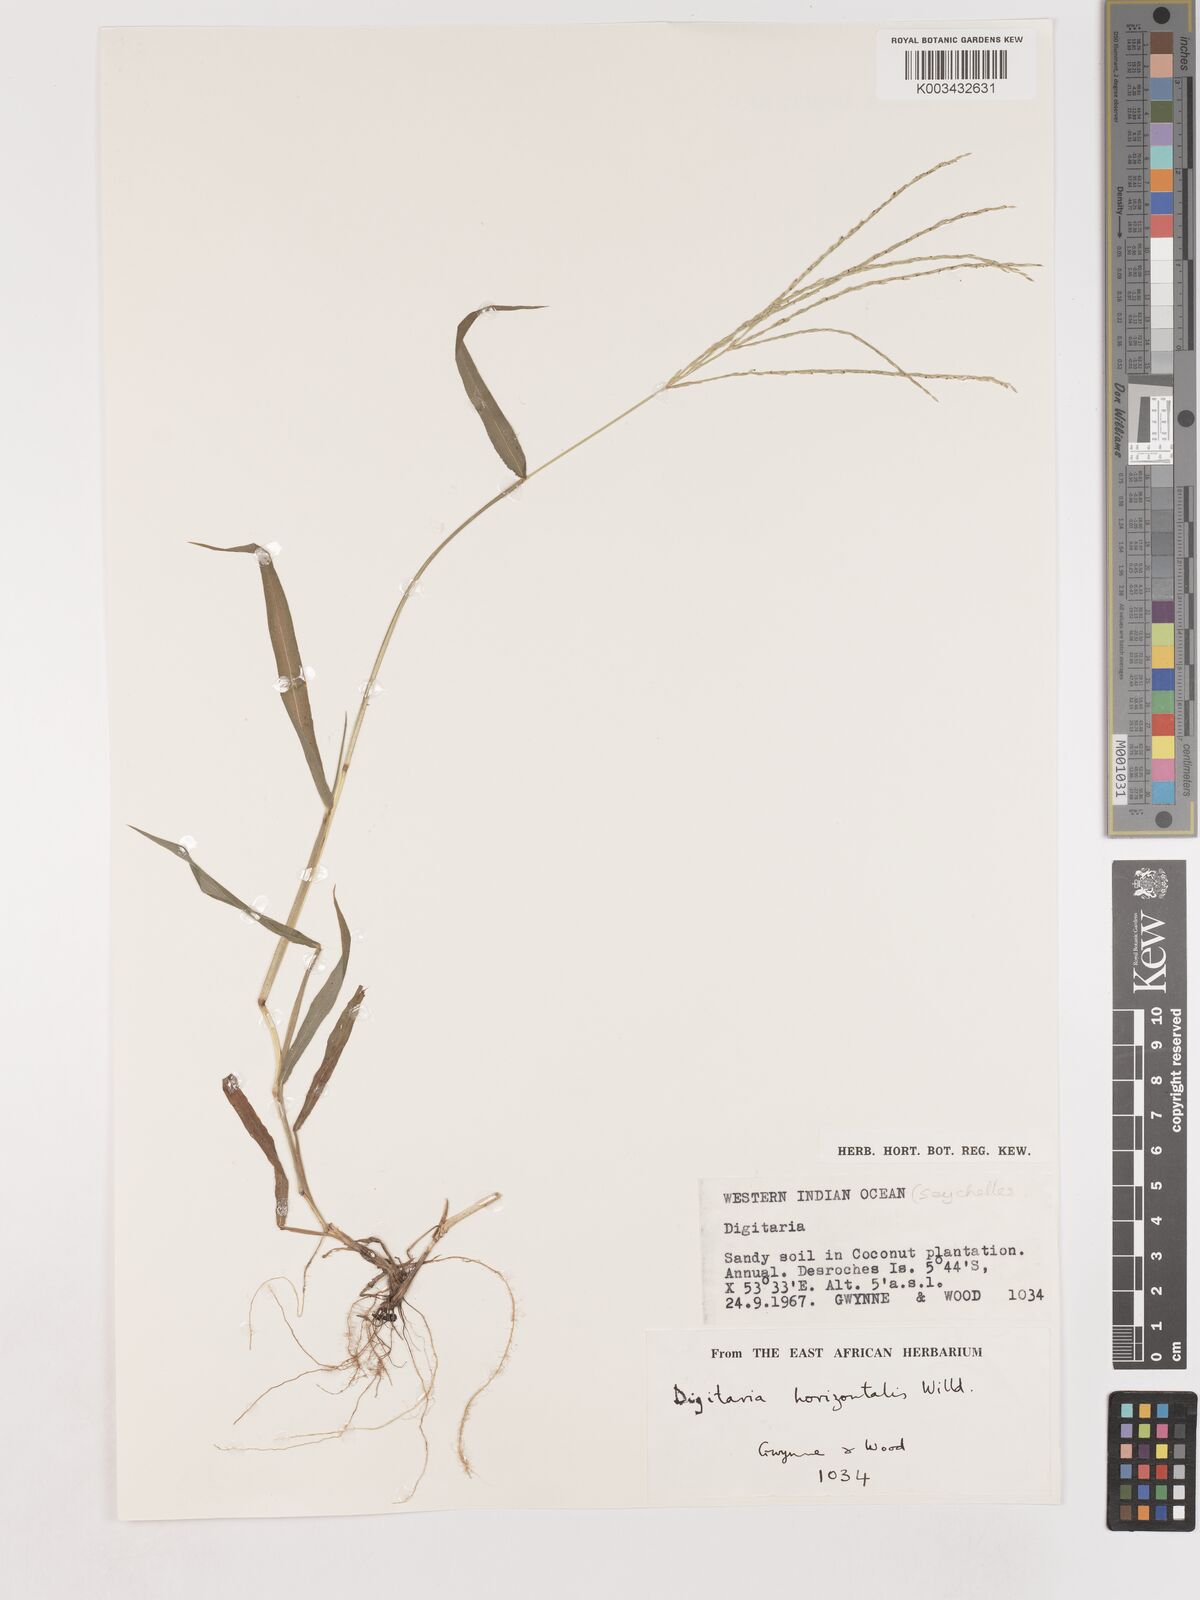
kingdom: Plantae
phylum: Tracheophyta
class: Liliopsida
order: Poales
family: Poaceae
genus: Digitaria
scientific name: Digitaria horizontalis
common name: Jamaican crabgrass
